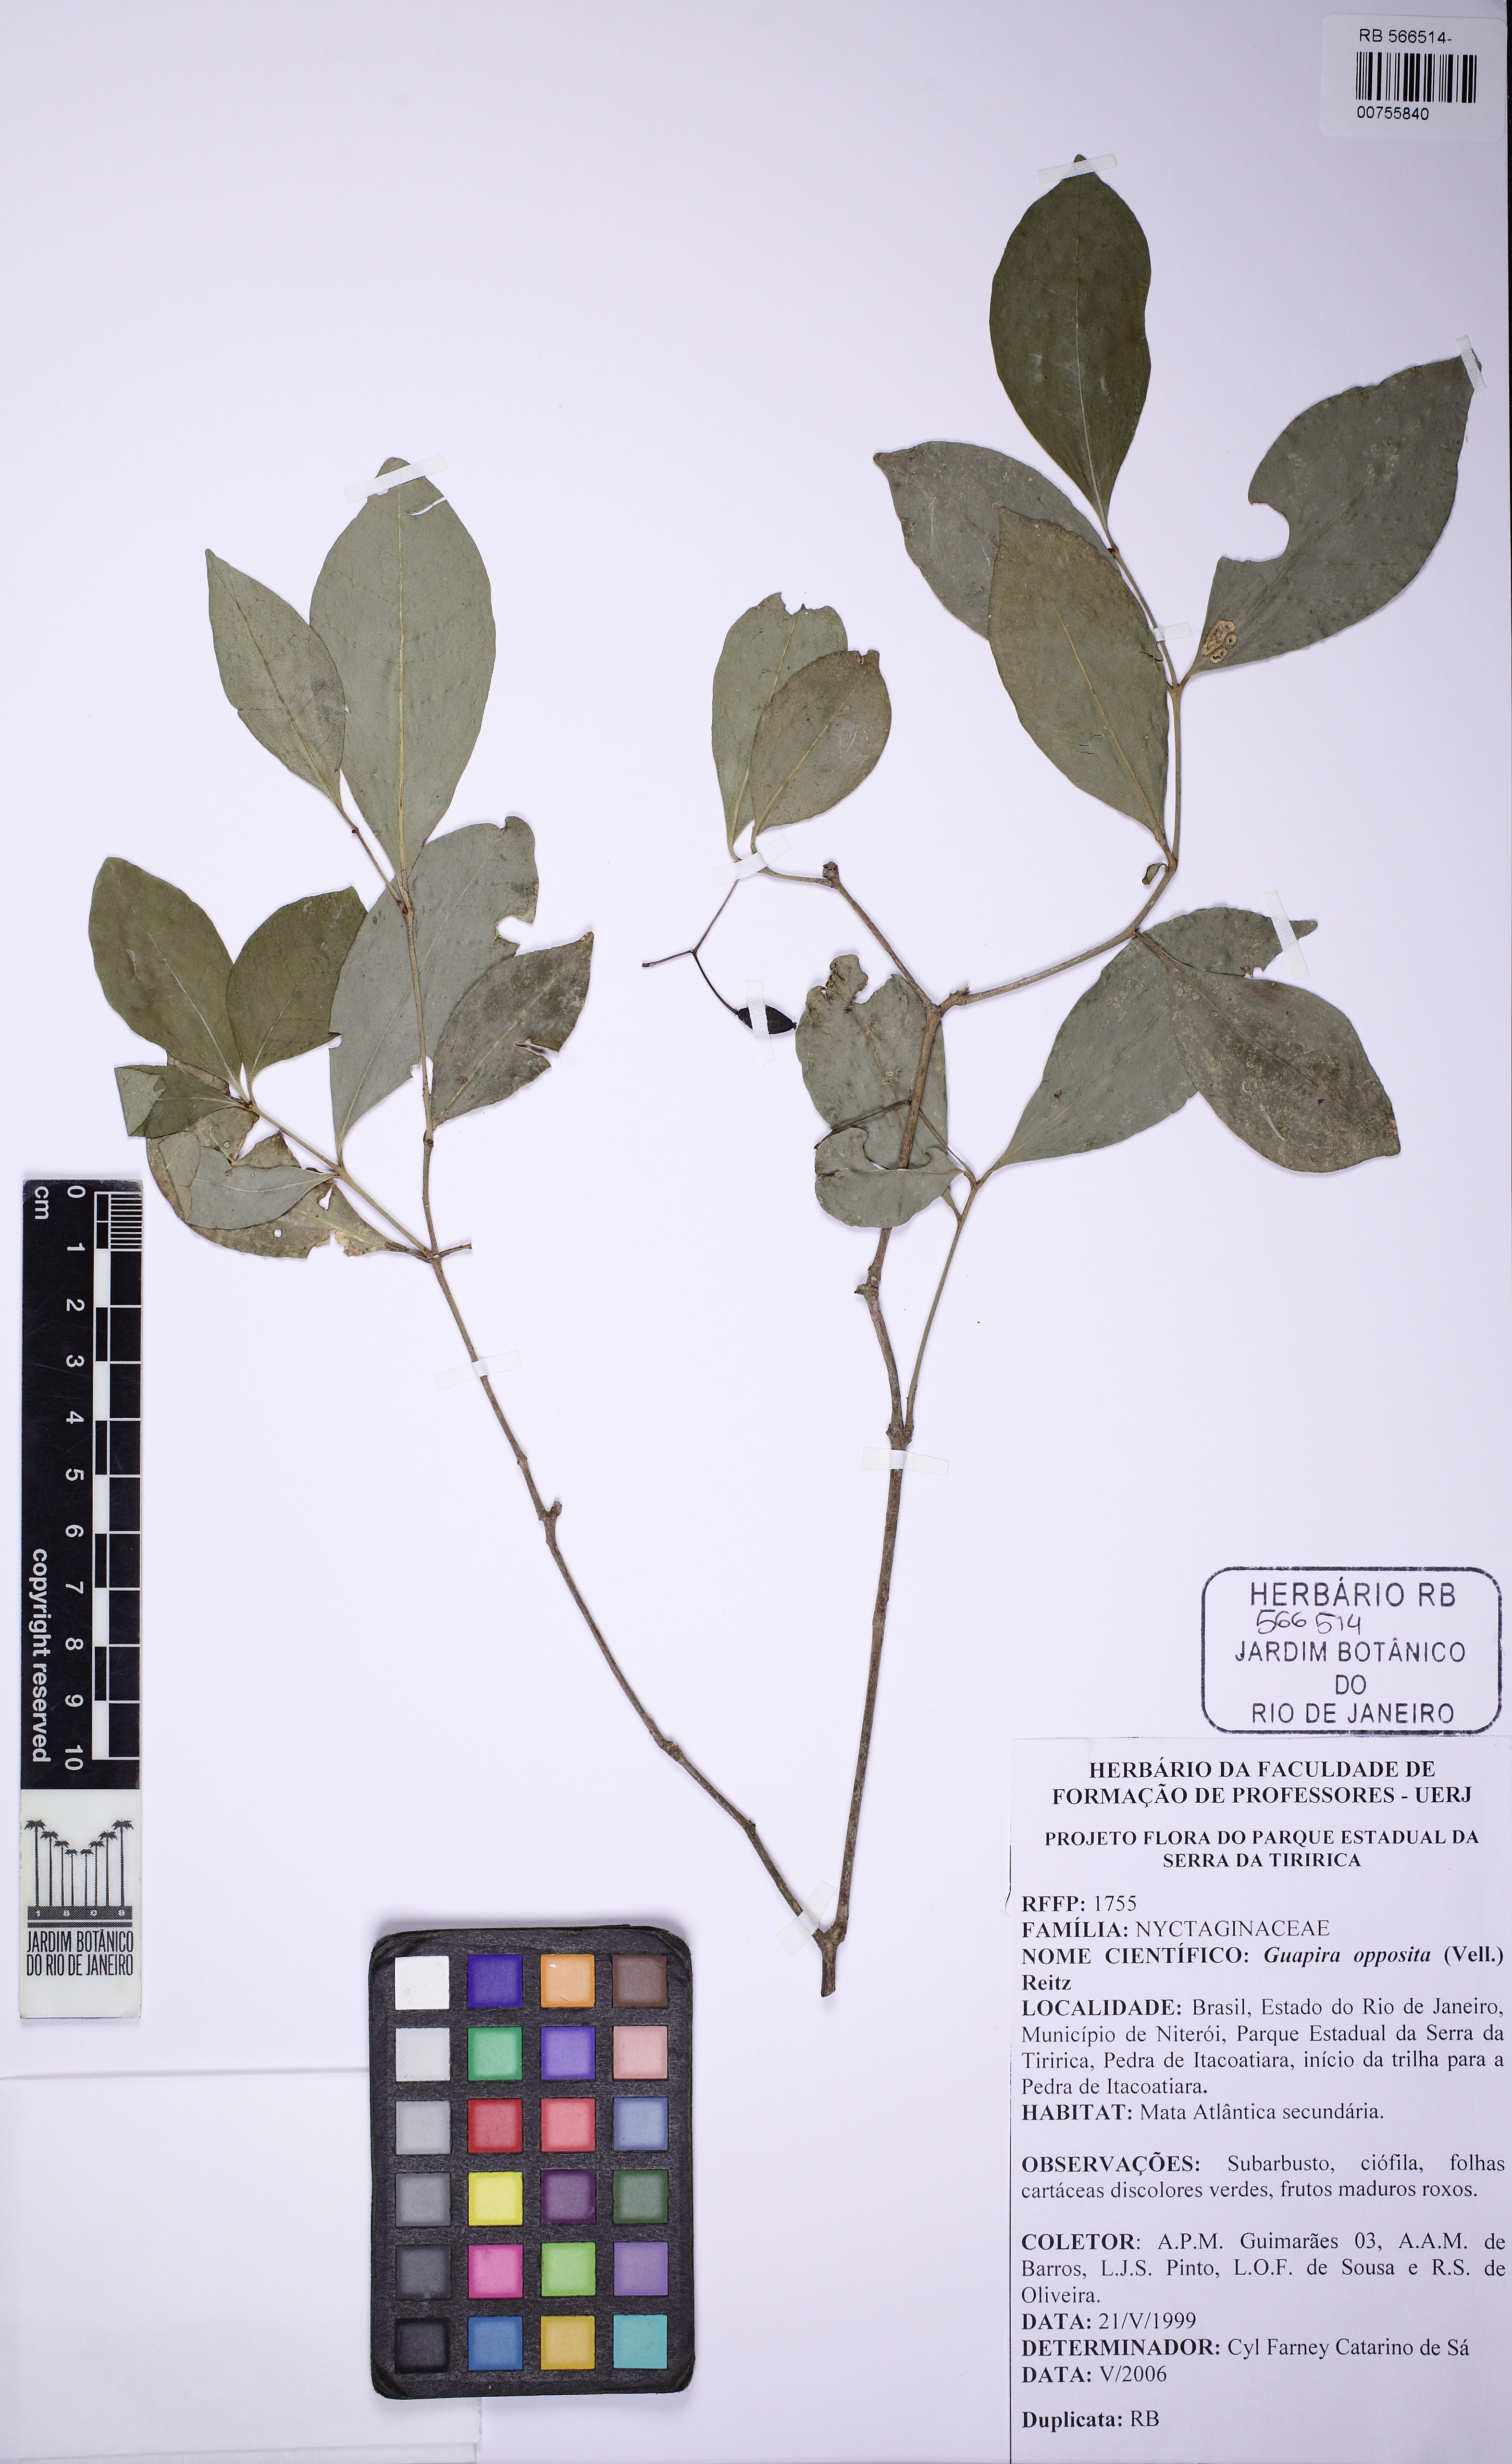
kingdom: Plantae
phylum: Tracheophyta
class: Magnoliopsida
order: Caryophyllales
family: Nyctaginaceae
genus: Guapira
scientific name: Guapira opposita
